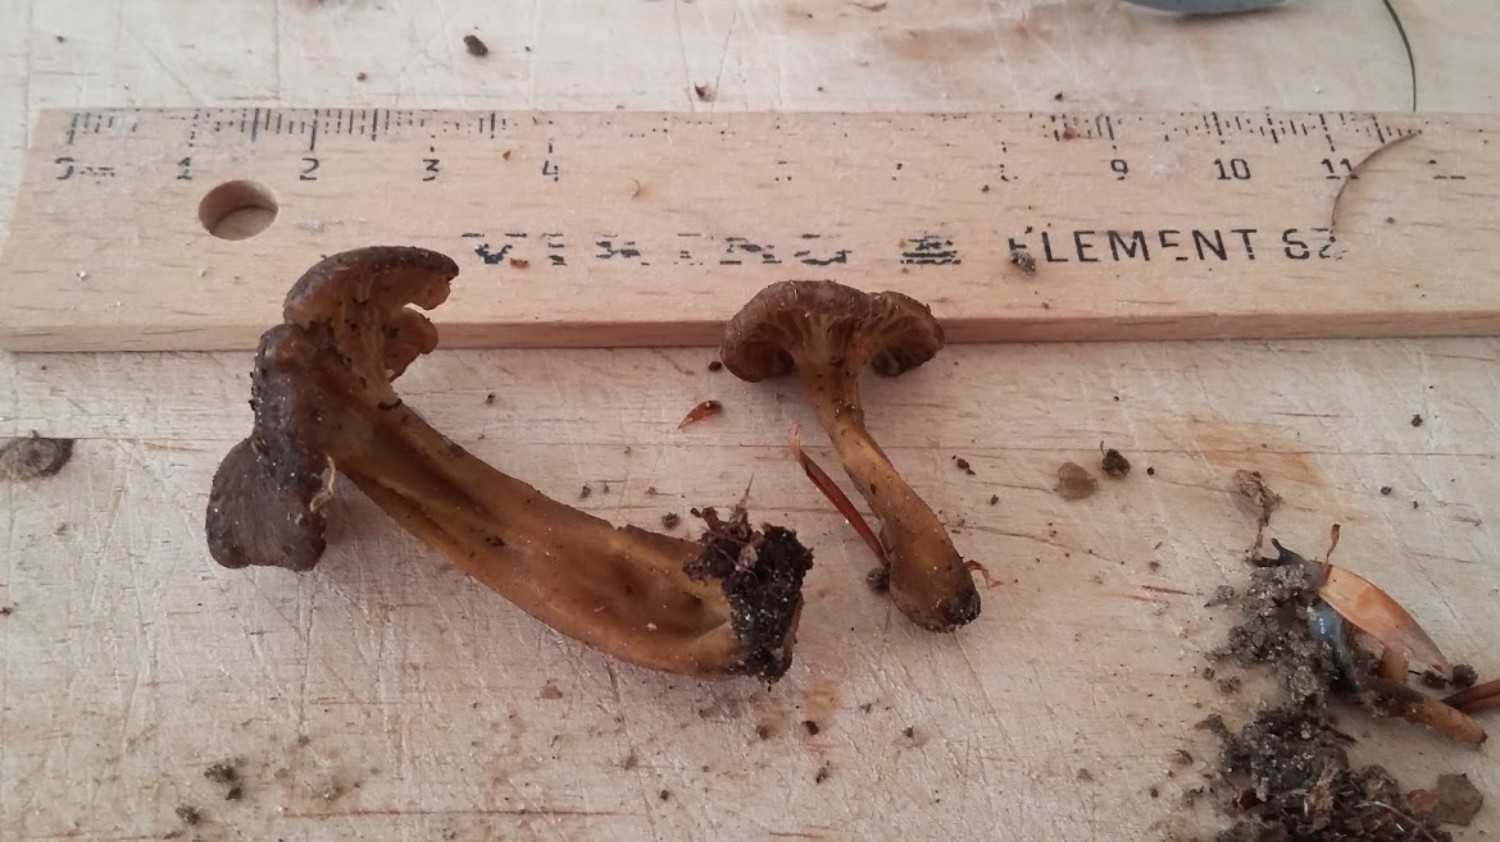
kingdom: Fungi
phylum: Basidiomycota
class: Agaricomycetes
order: Cantharellales
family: Hydnaceae
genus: Craterellus
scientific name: Craterellus tubaeformis
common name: tragt-kantarel
